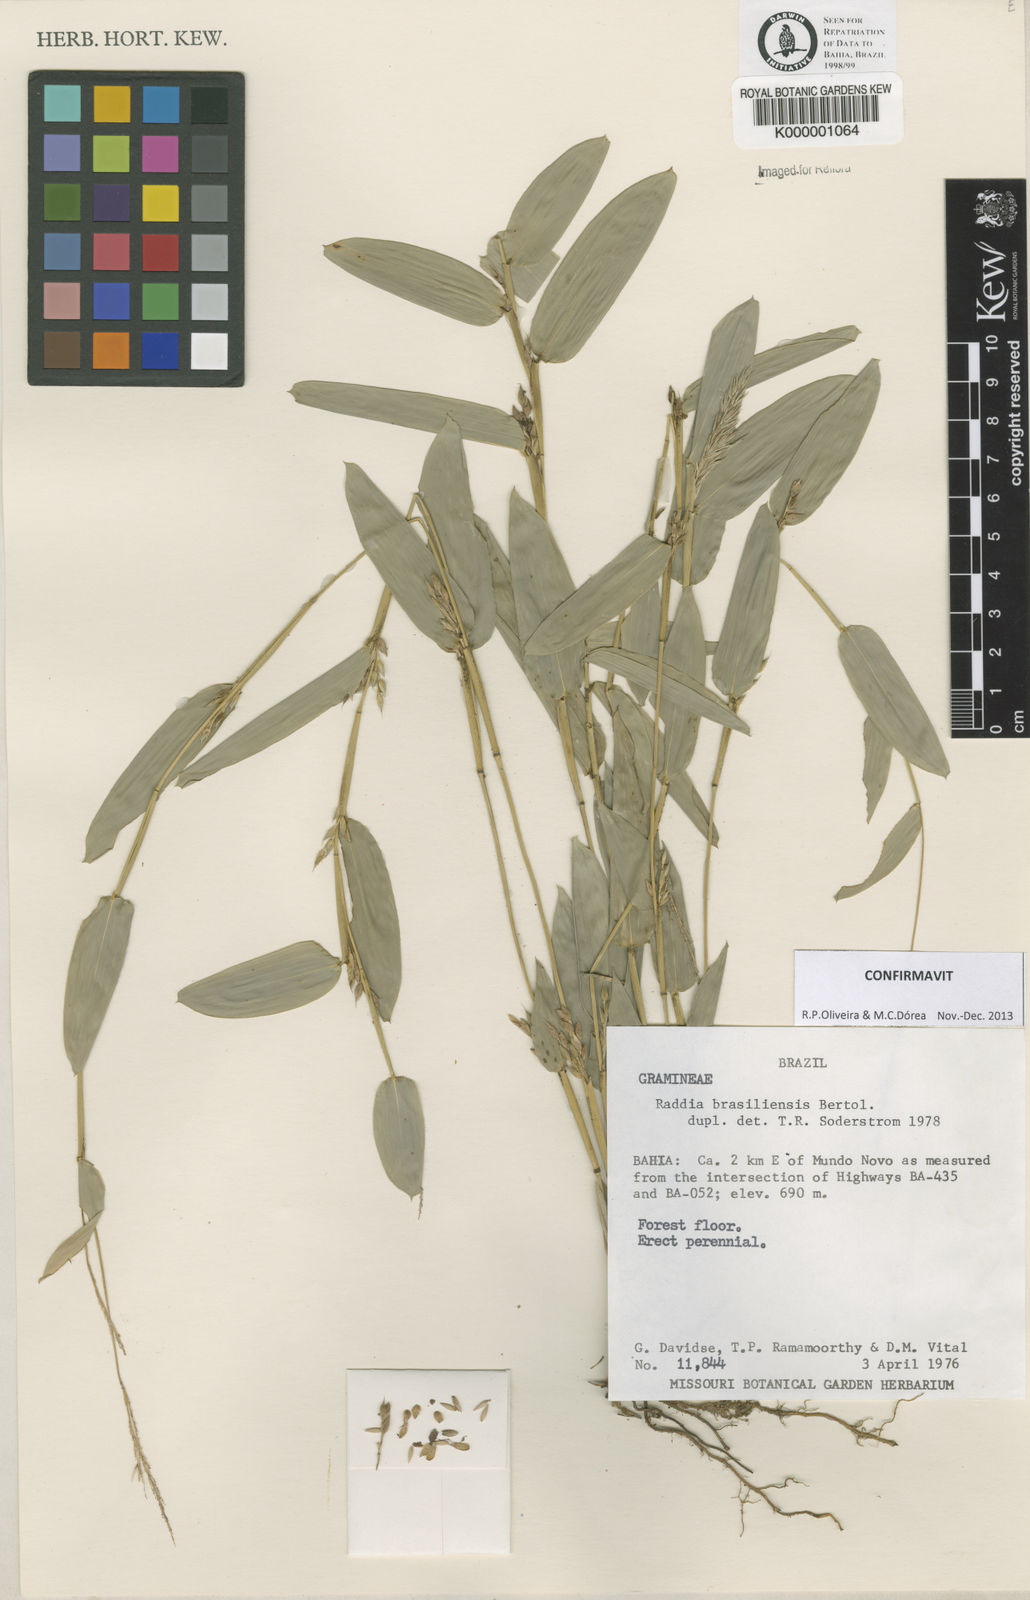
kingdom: Plantae
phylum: Tracheophyta
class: Liliopsida
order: Poales
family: Poaceae
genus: Raddia
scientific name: Raddia brasiliensis
